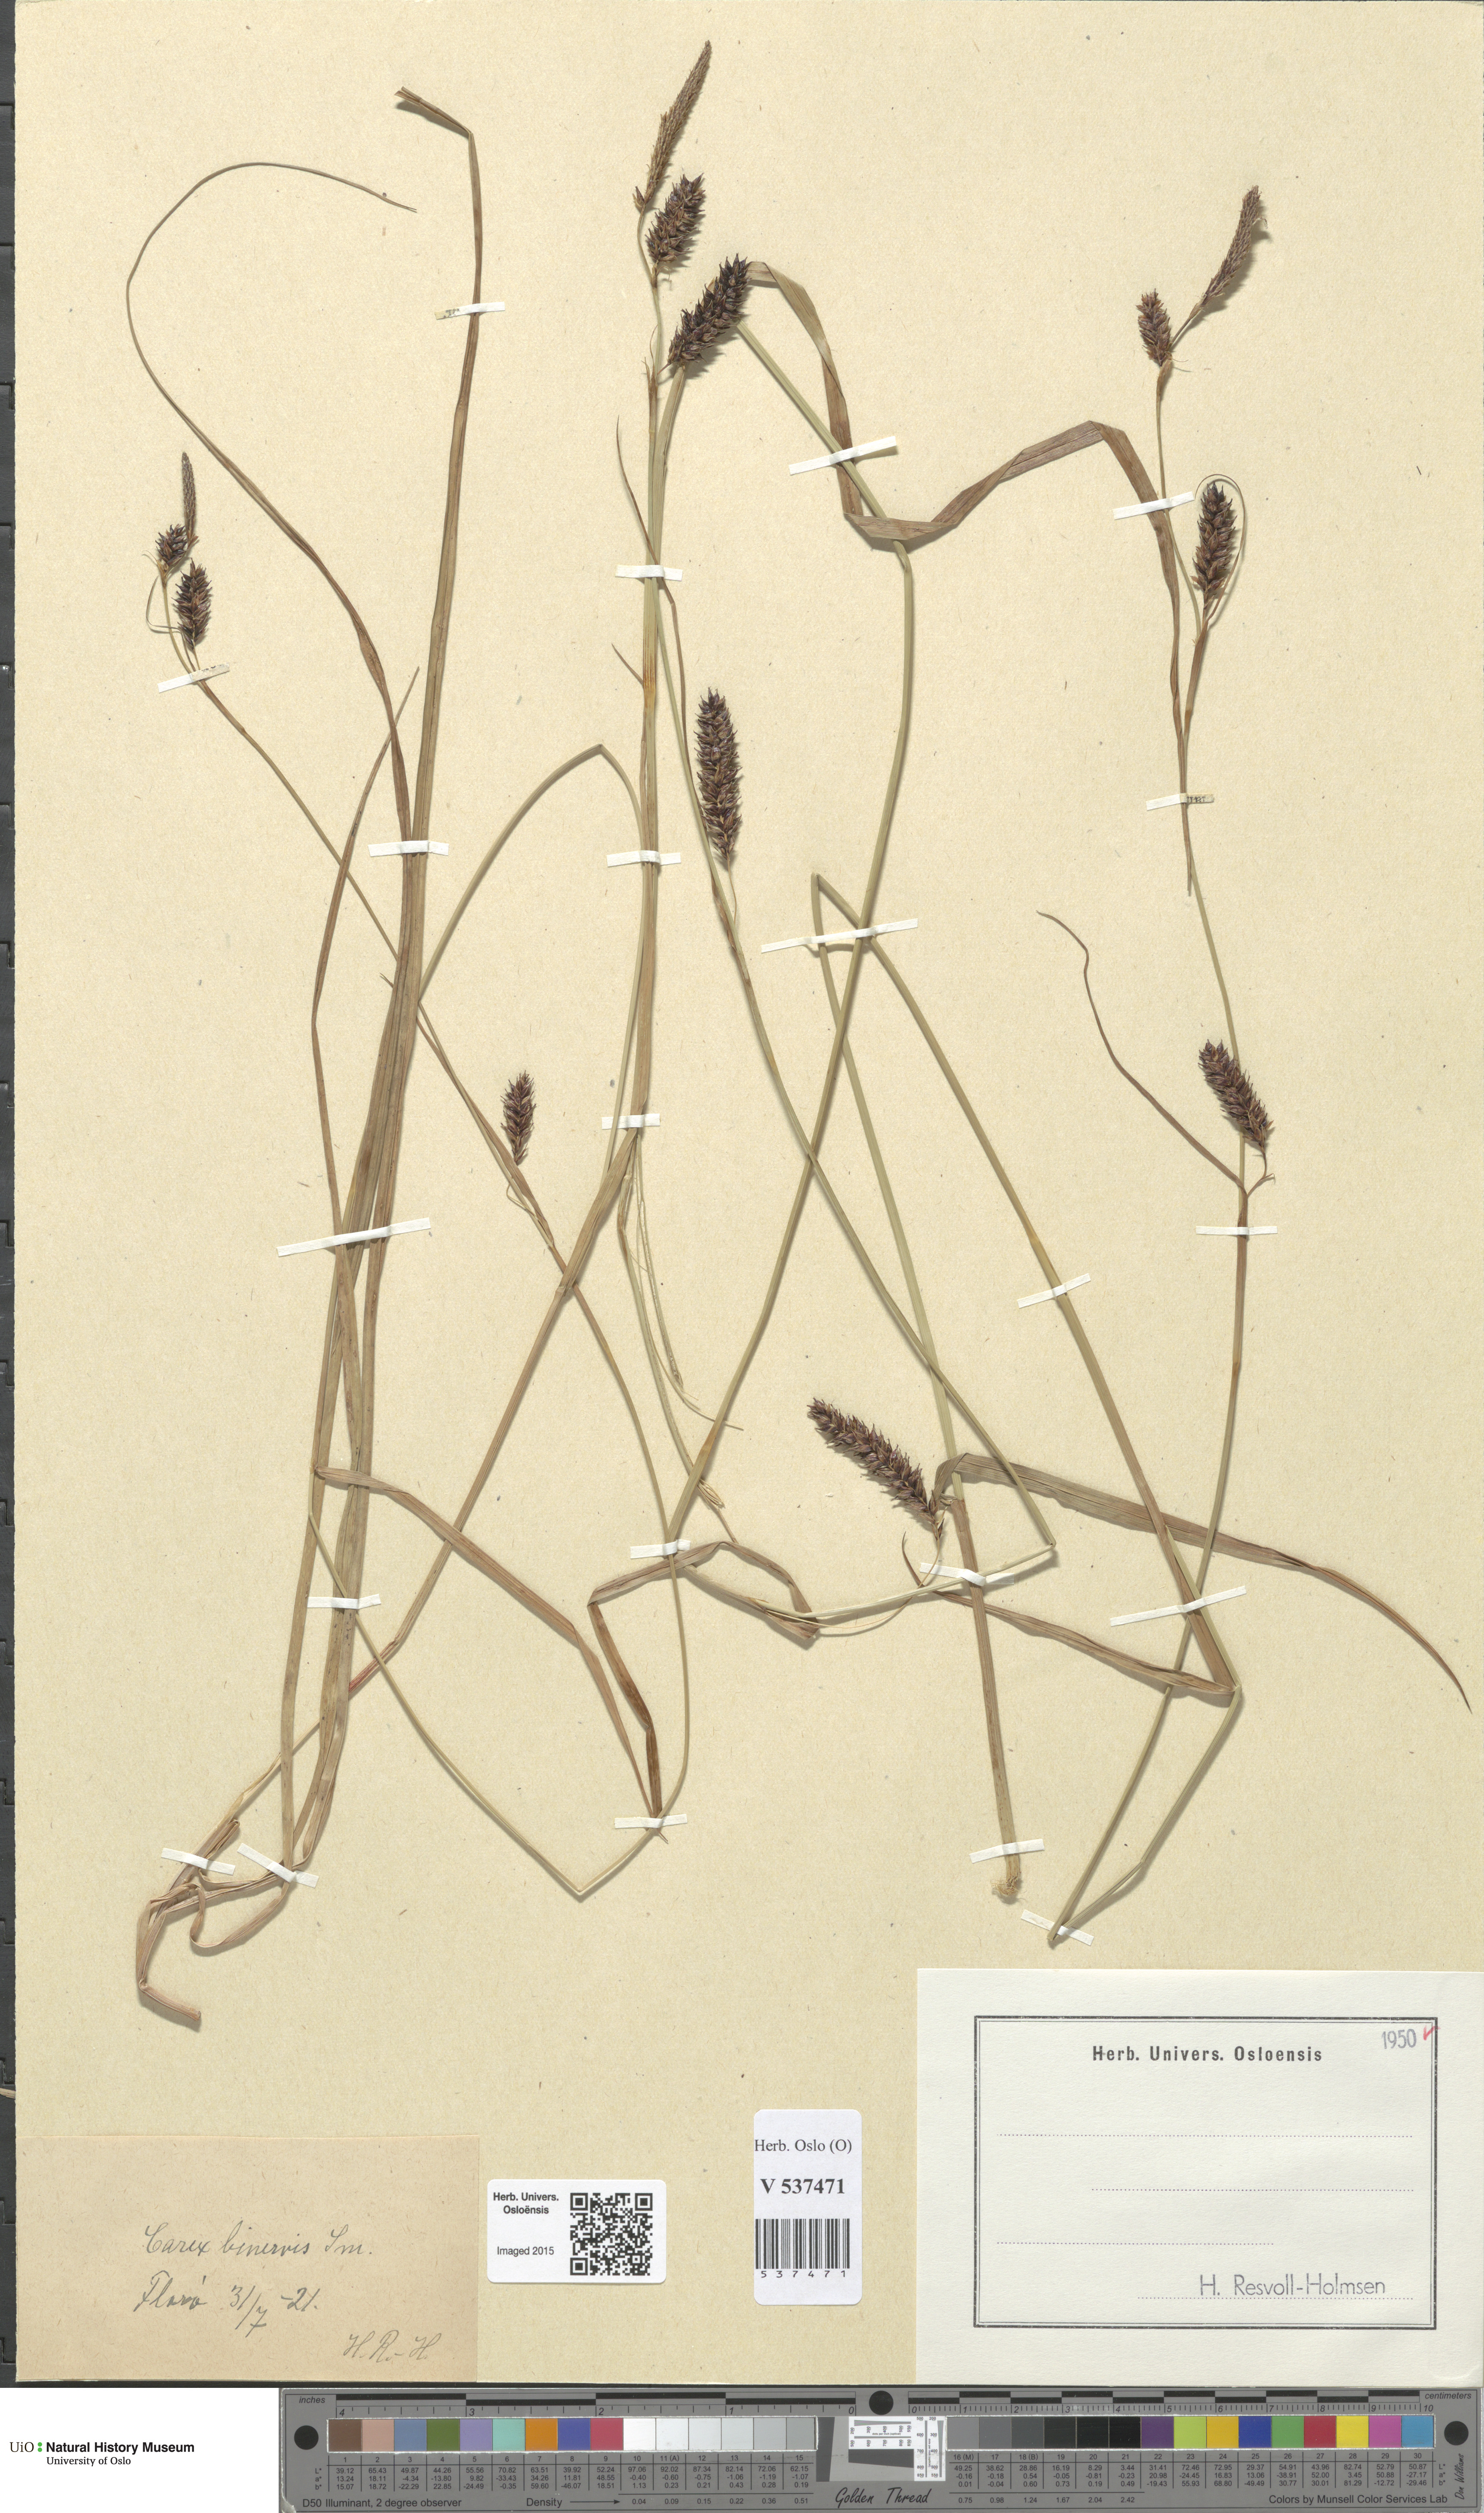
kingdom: Plantae
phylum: Tracheophyta
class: Liliopsida
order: Poales
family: Cyperaceae
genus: Carex
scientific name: Carex binervis
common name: Green-ribbed sedge
